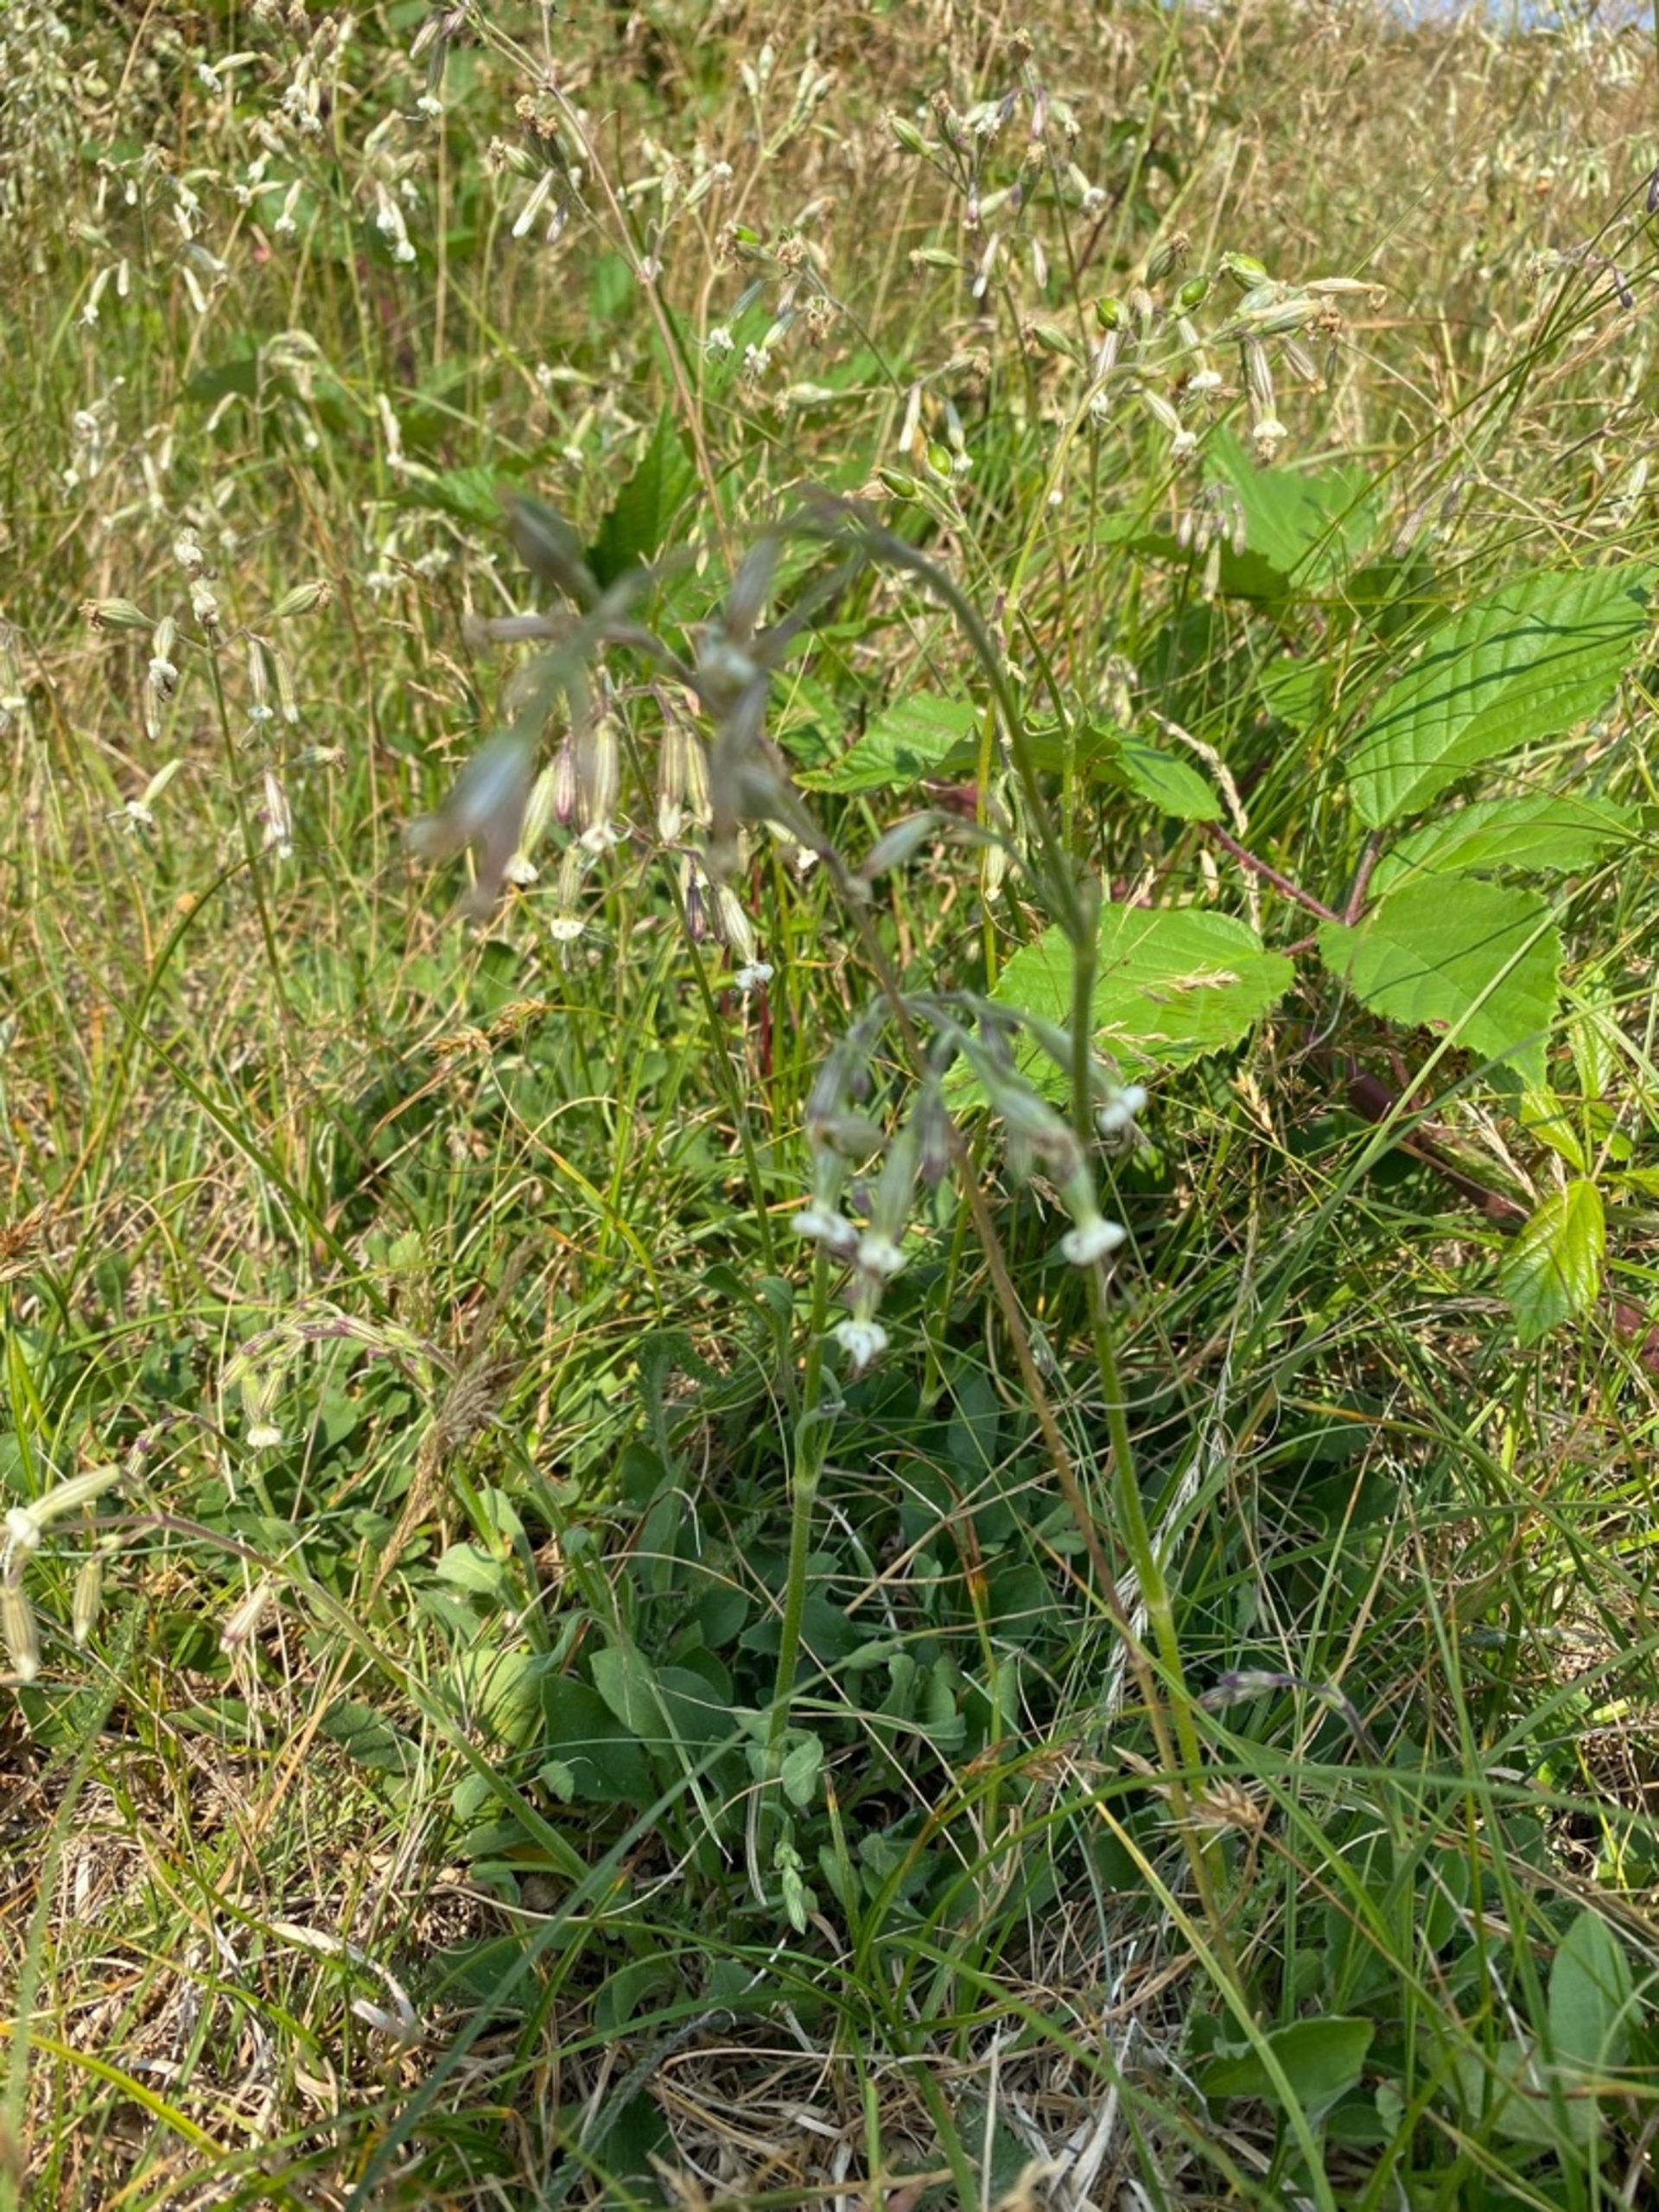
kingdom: Plantae
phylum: Tracheophyta
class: Magnoliopsida
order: Caryophyllales
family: Caryophyllaceae
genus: Silene
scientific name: Silene nutans
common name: Nikkende limurt
